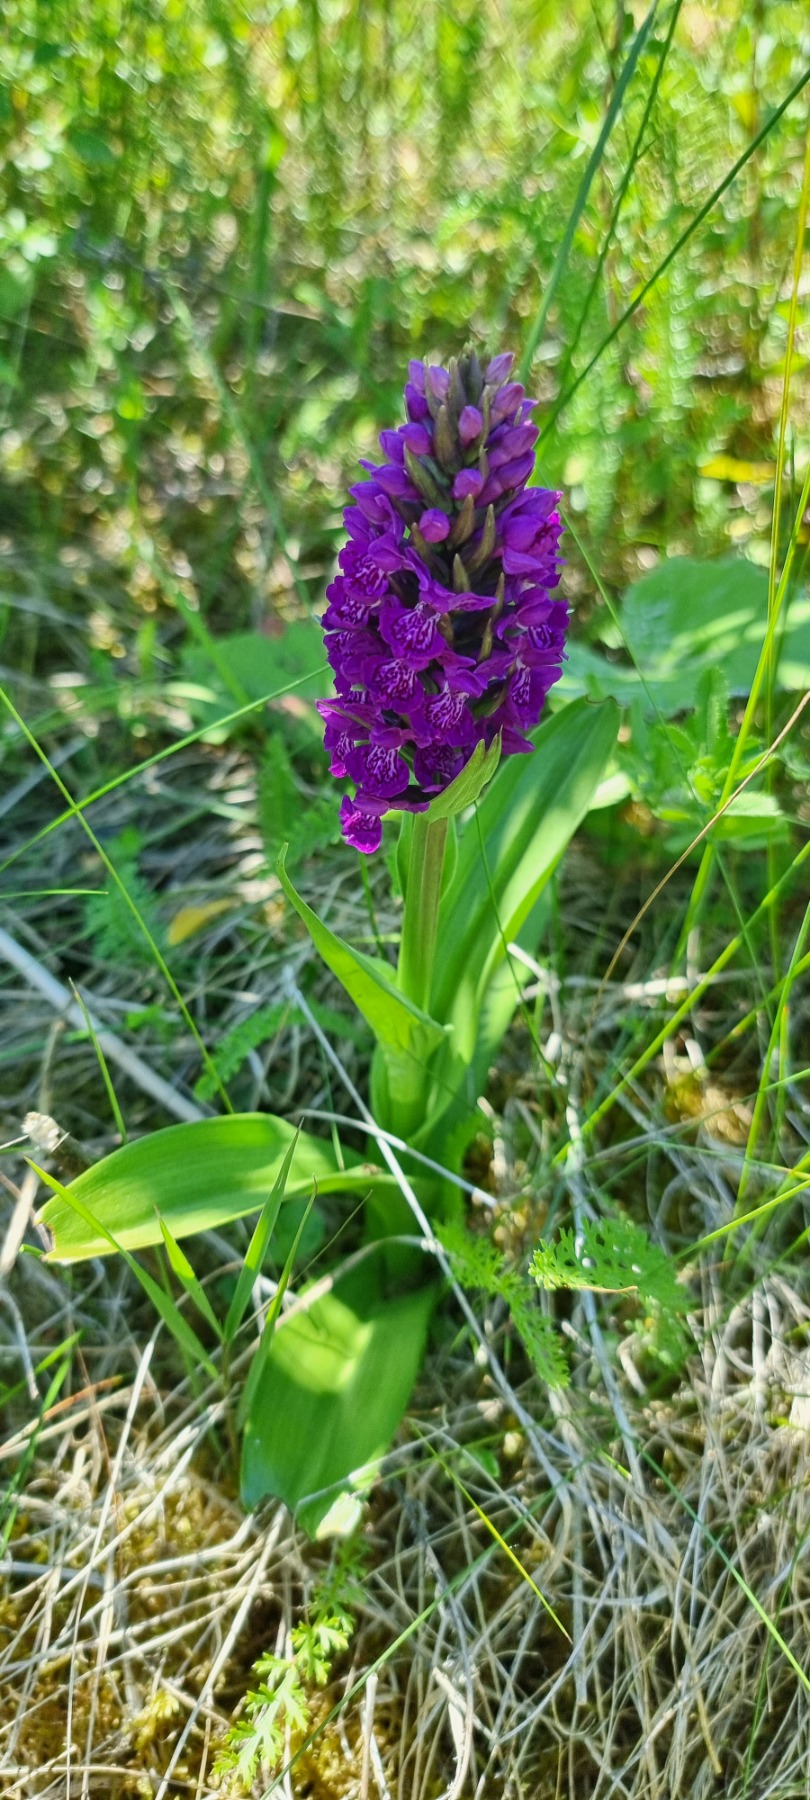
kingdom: Plantae
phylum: Tracheophyta
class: Liliopsida
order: Asparagales
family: Orchidaceae
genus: Dactylorhiza
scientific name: Dactylorhiza majalis
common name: Purpur-gøgeurt
